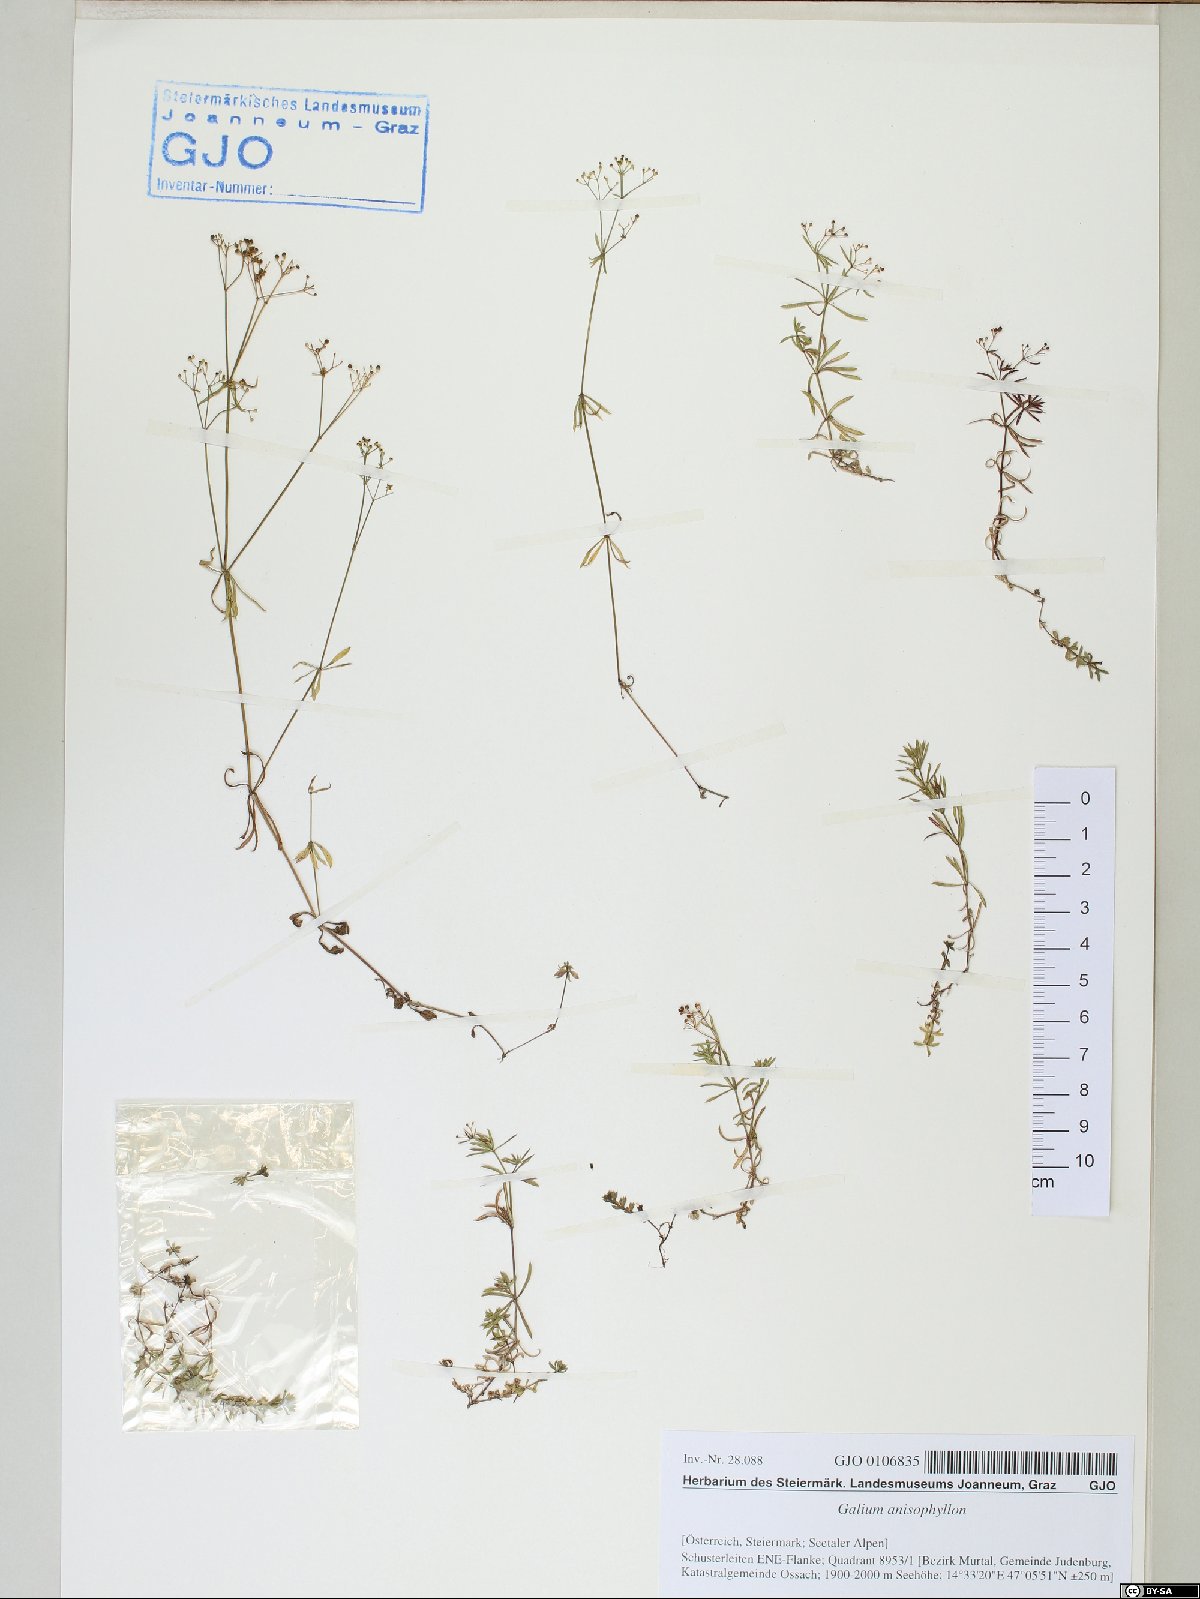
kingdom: Plantae
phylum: Tracheophyta
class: Magnoliopsida
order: Gentianales
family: Rubiaceae
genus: Galium
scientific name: Galium anisophyllon
